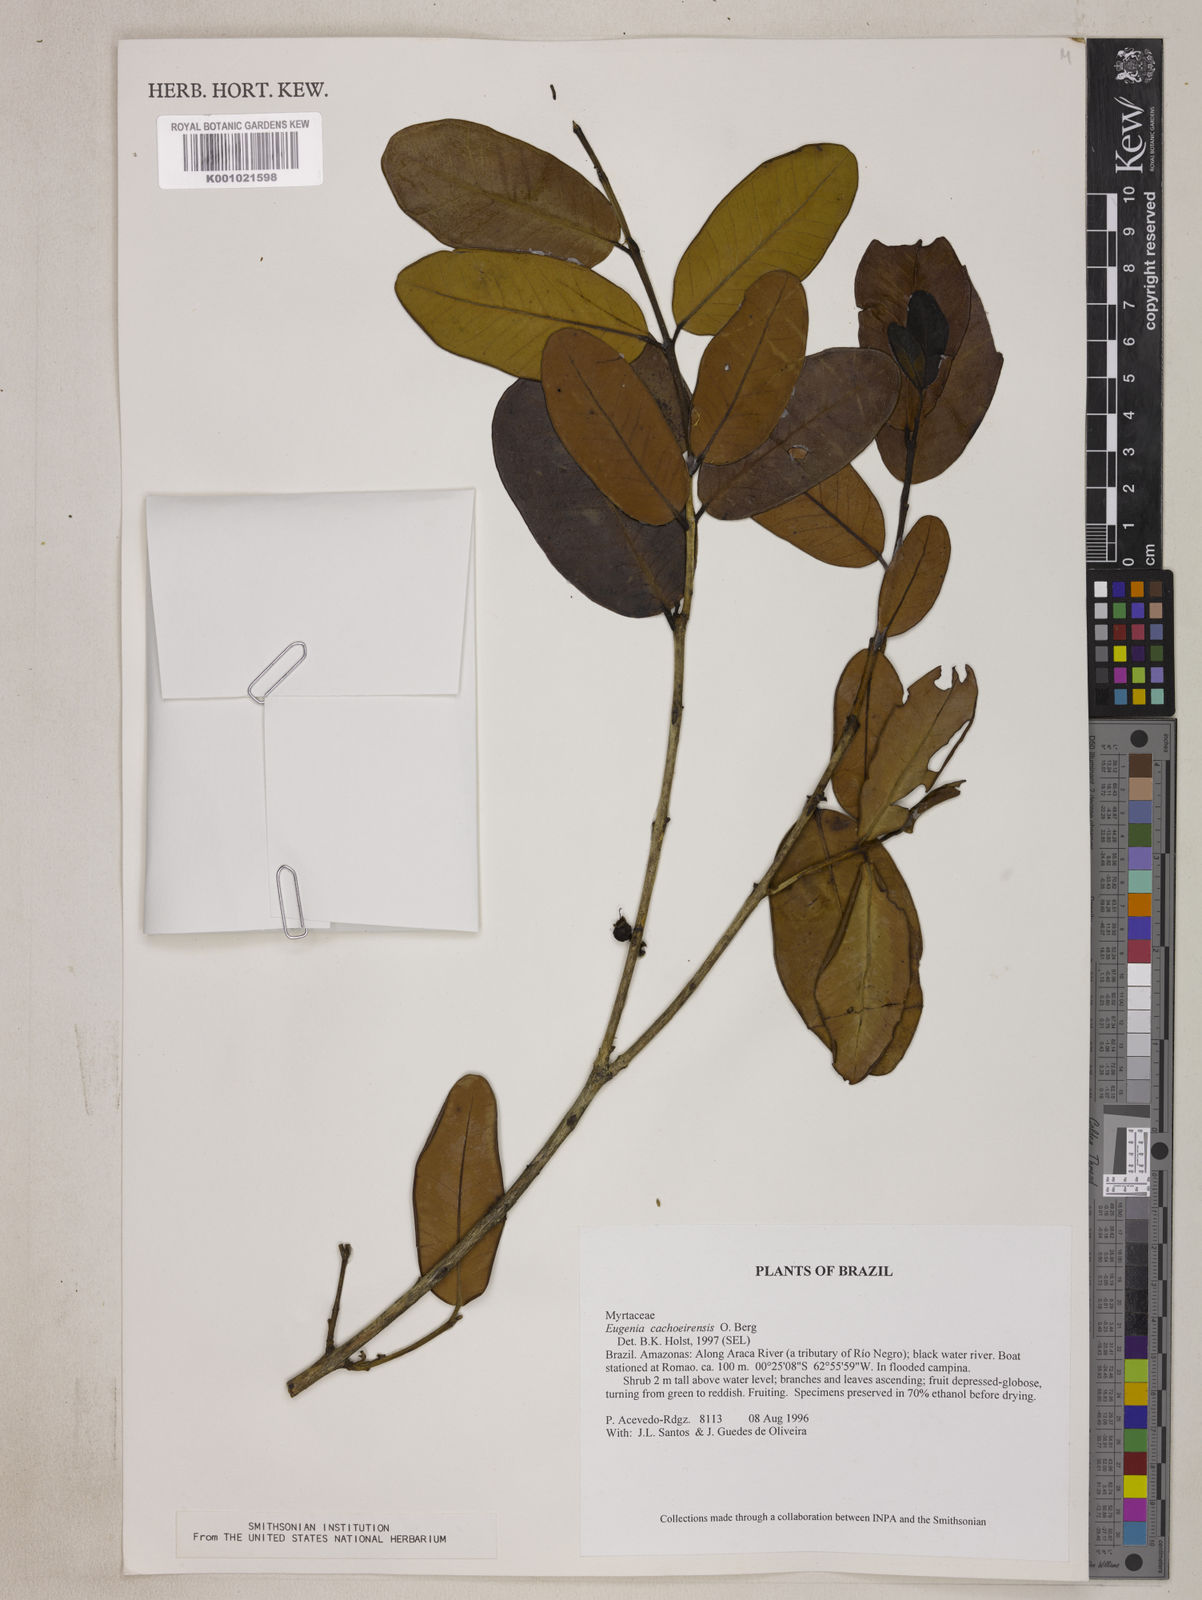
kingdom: Plantae
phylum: Tracheophyta
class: Magnoliopsida
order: Myrtales
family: Myrtaceae
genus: Eugenia
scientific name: Eugenia cachoeirensis
